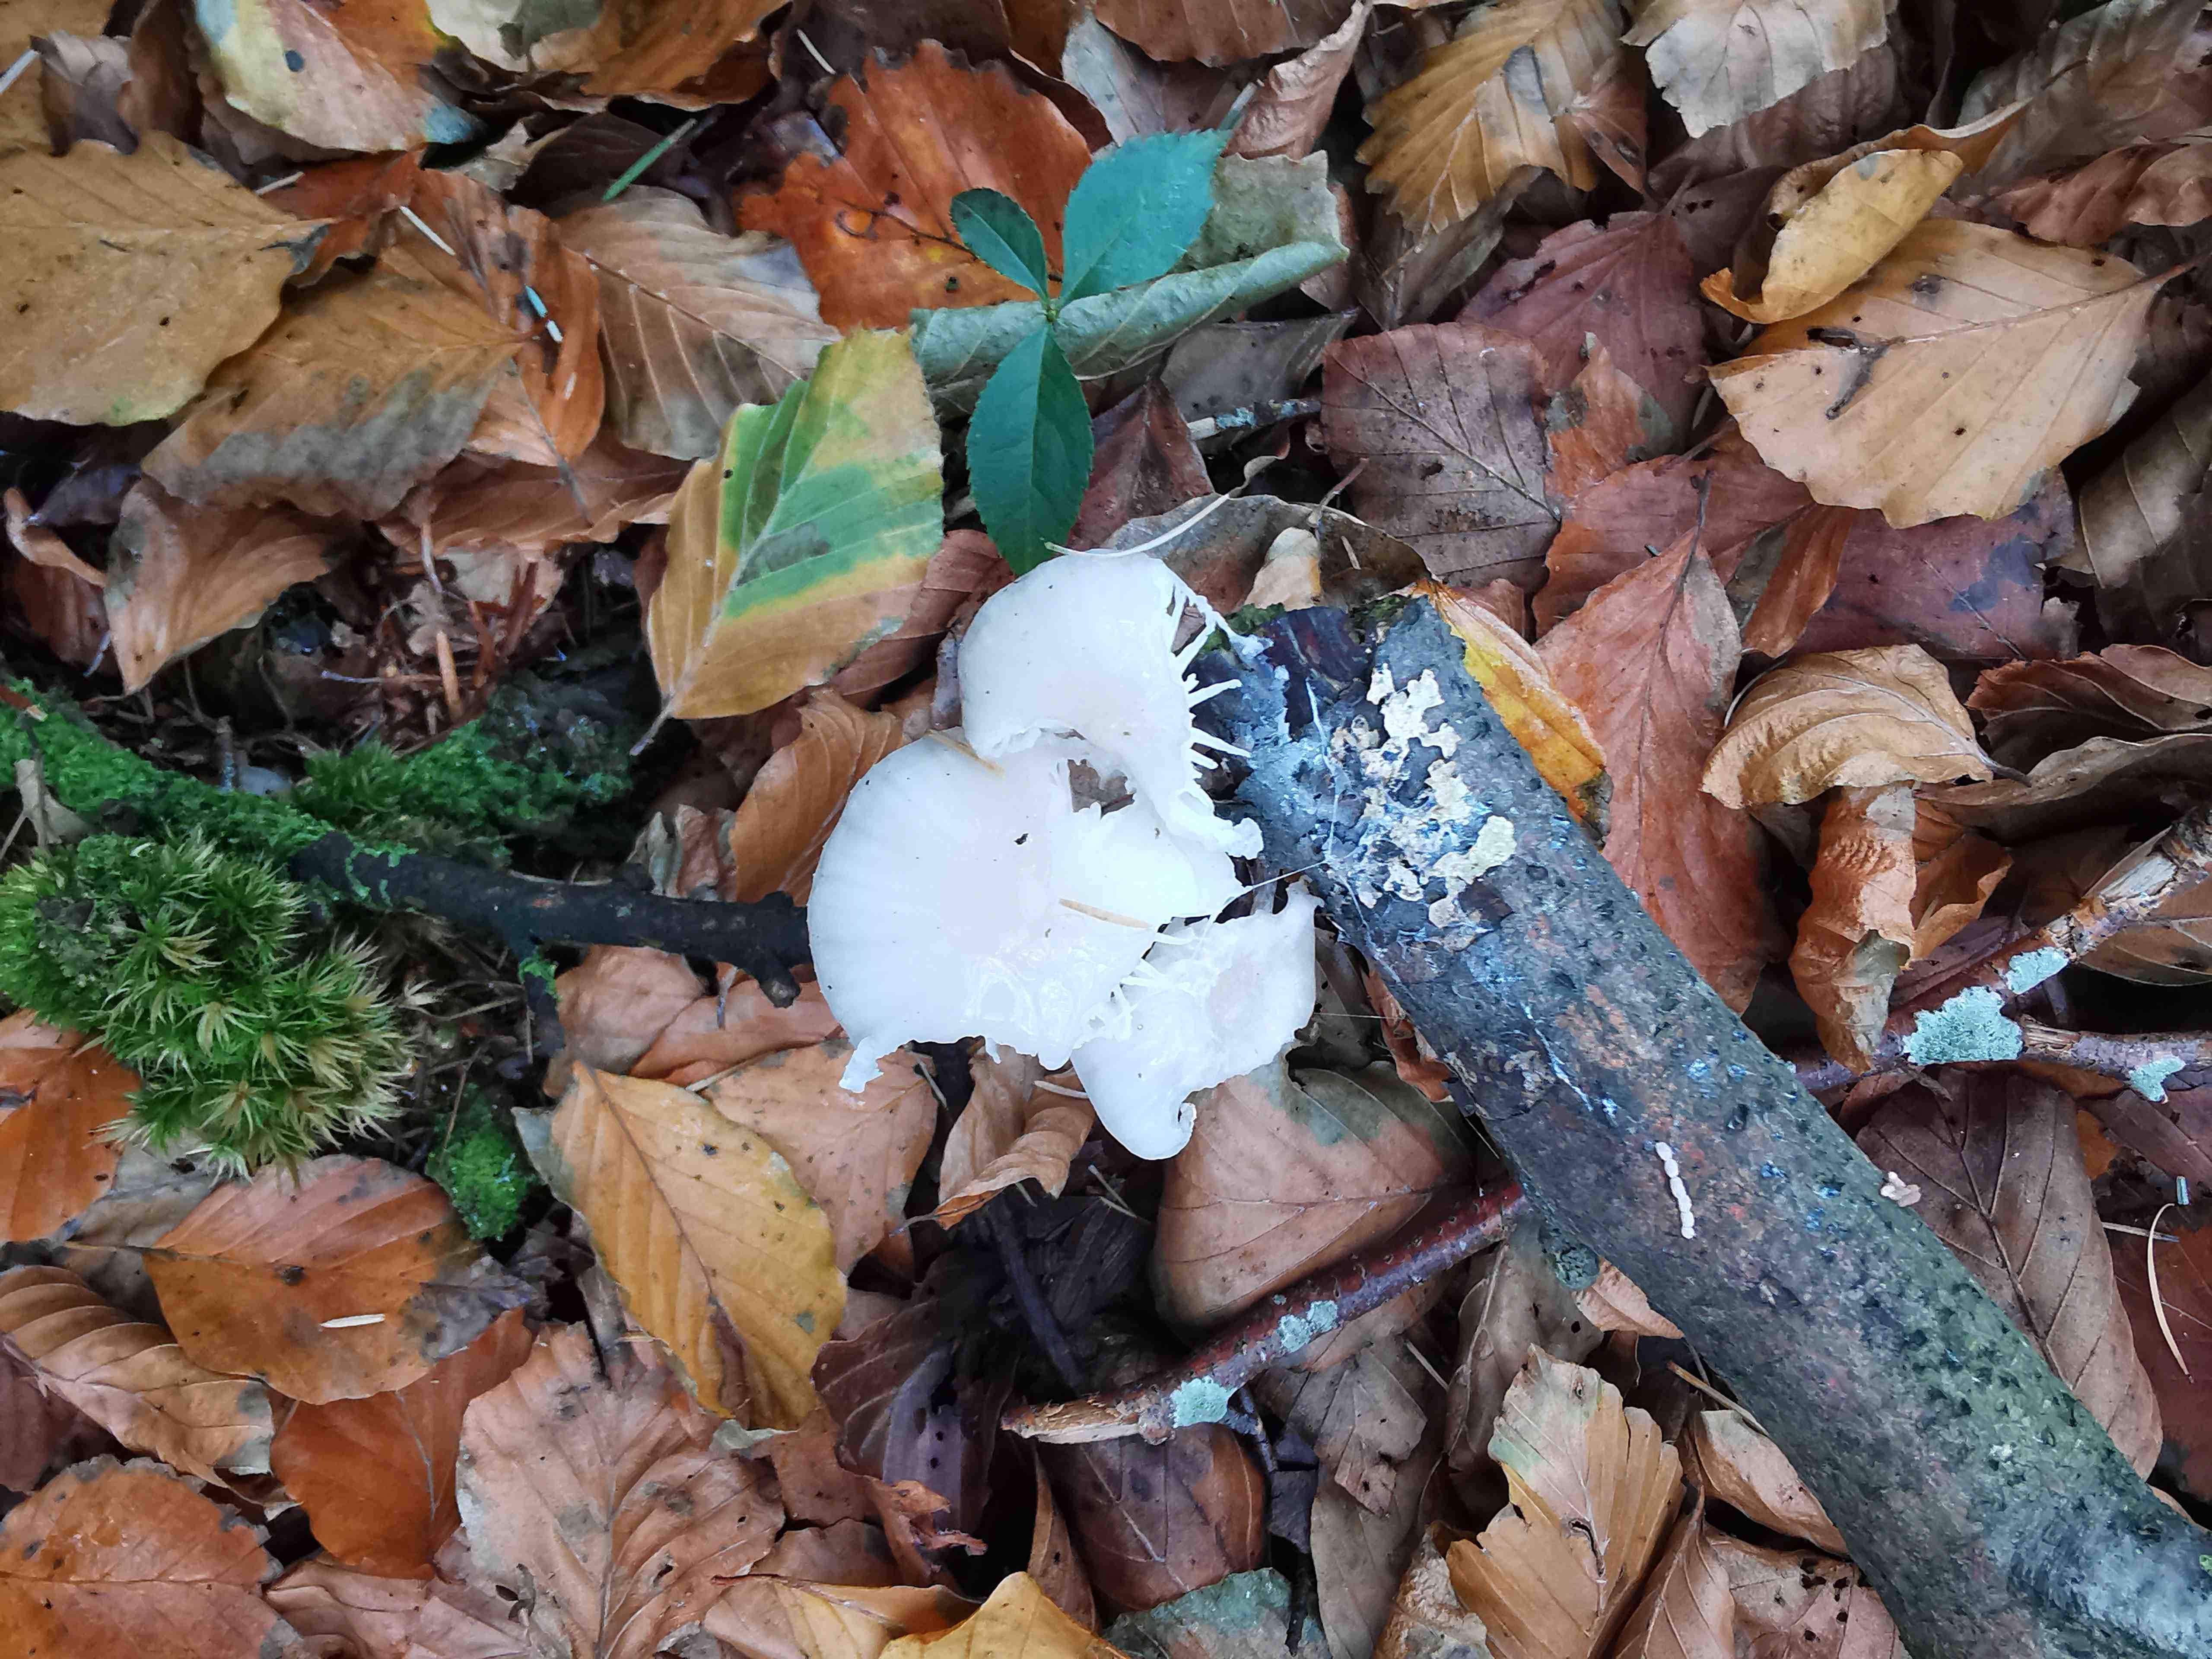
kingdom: Fungi
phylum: Basidiomycota
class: Agaricomycetes
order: Agaricales
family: Physalacriaceae
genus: Mucidula
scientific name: Mucidula mucida
